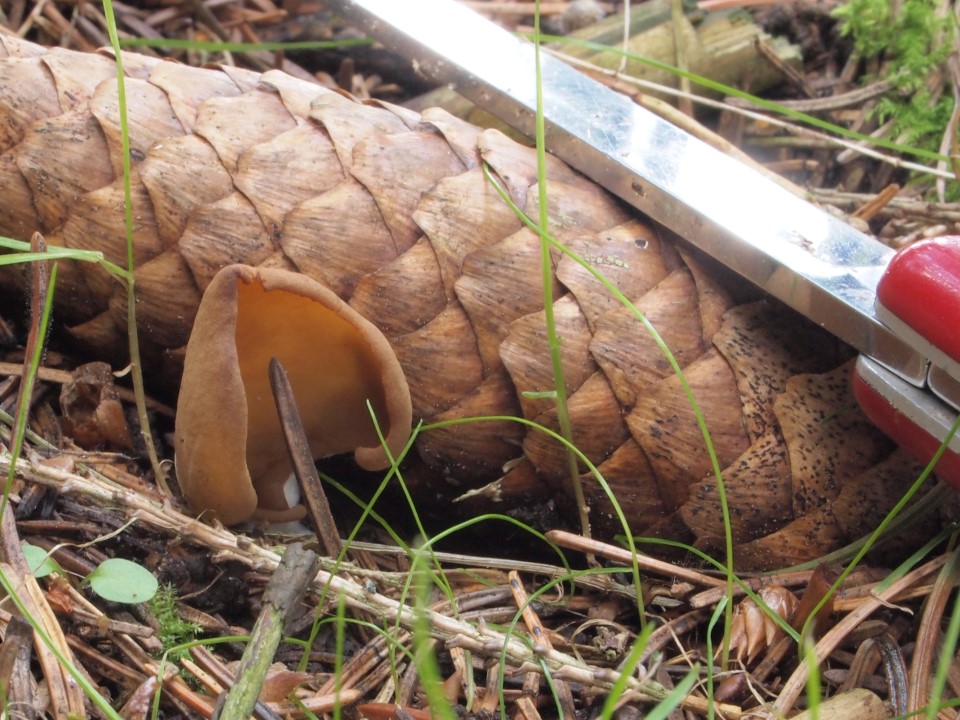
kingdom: Fungi
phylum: Ascomycota
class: Pezizomycetes
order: Pezizales
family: Otideaceae
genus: Otidea
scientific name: Otidea leporina
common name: hare-ørebæger
